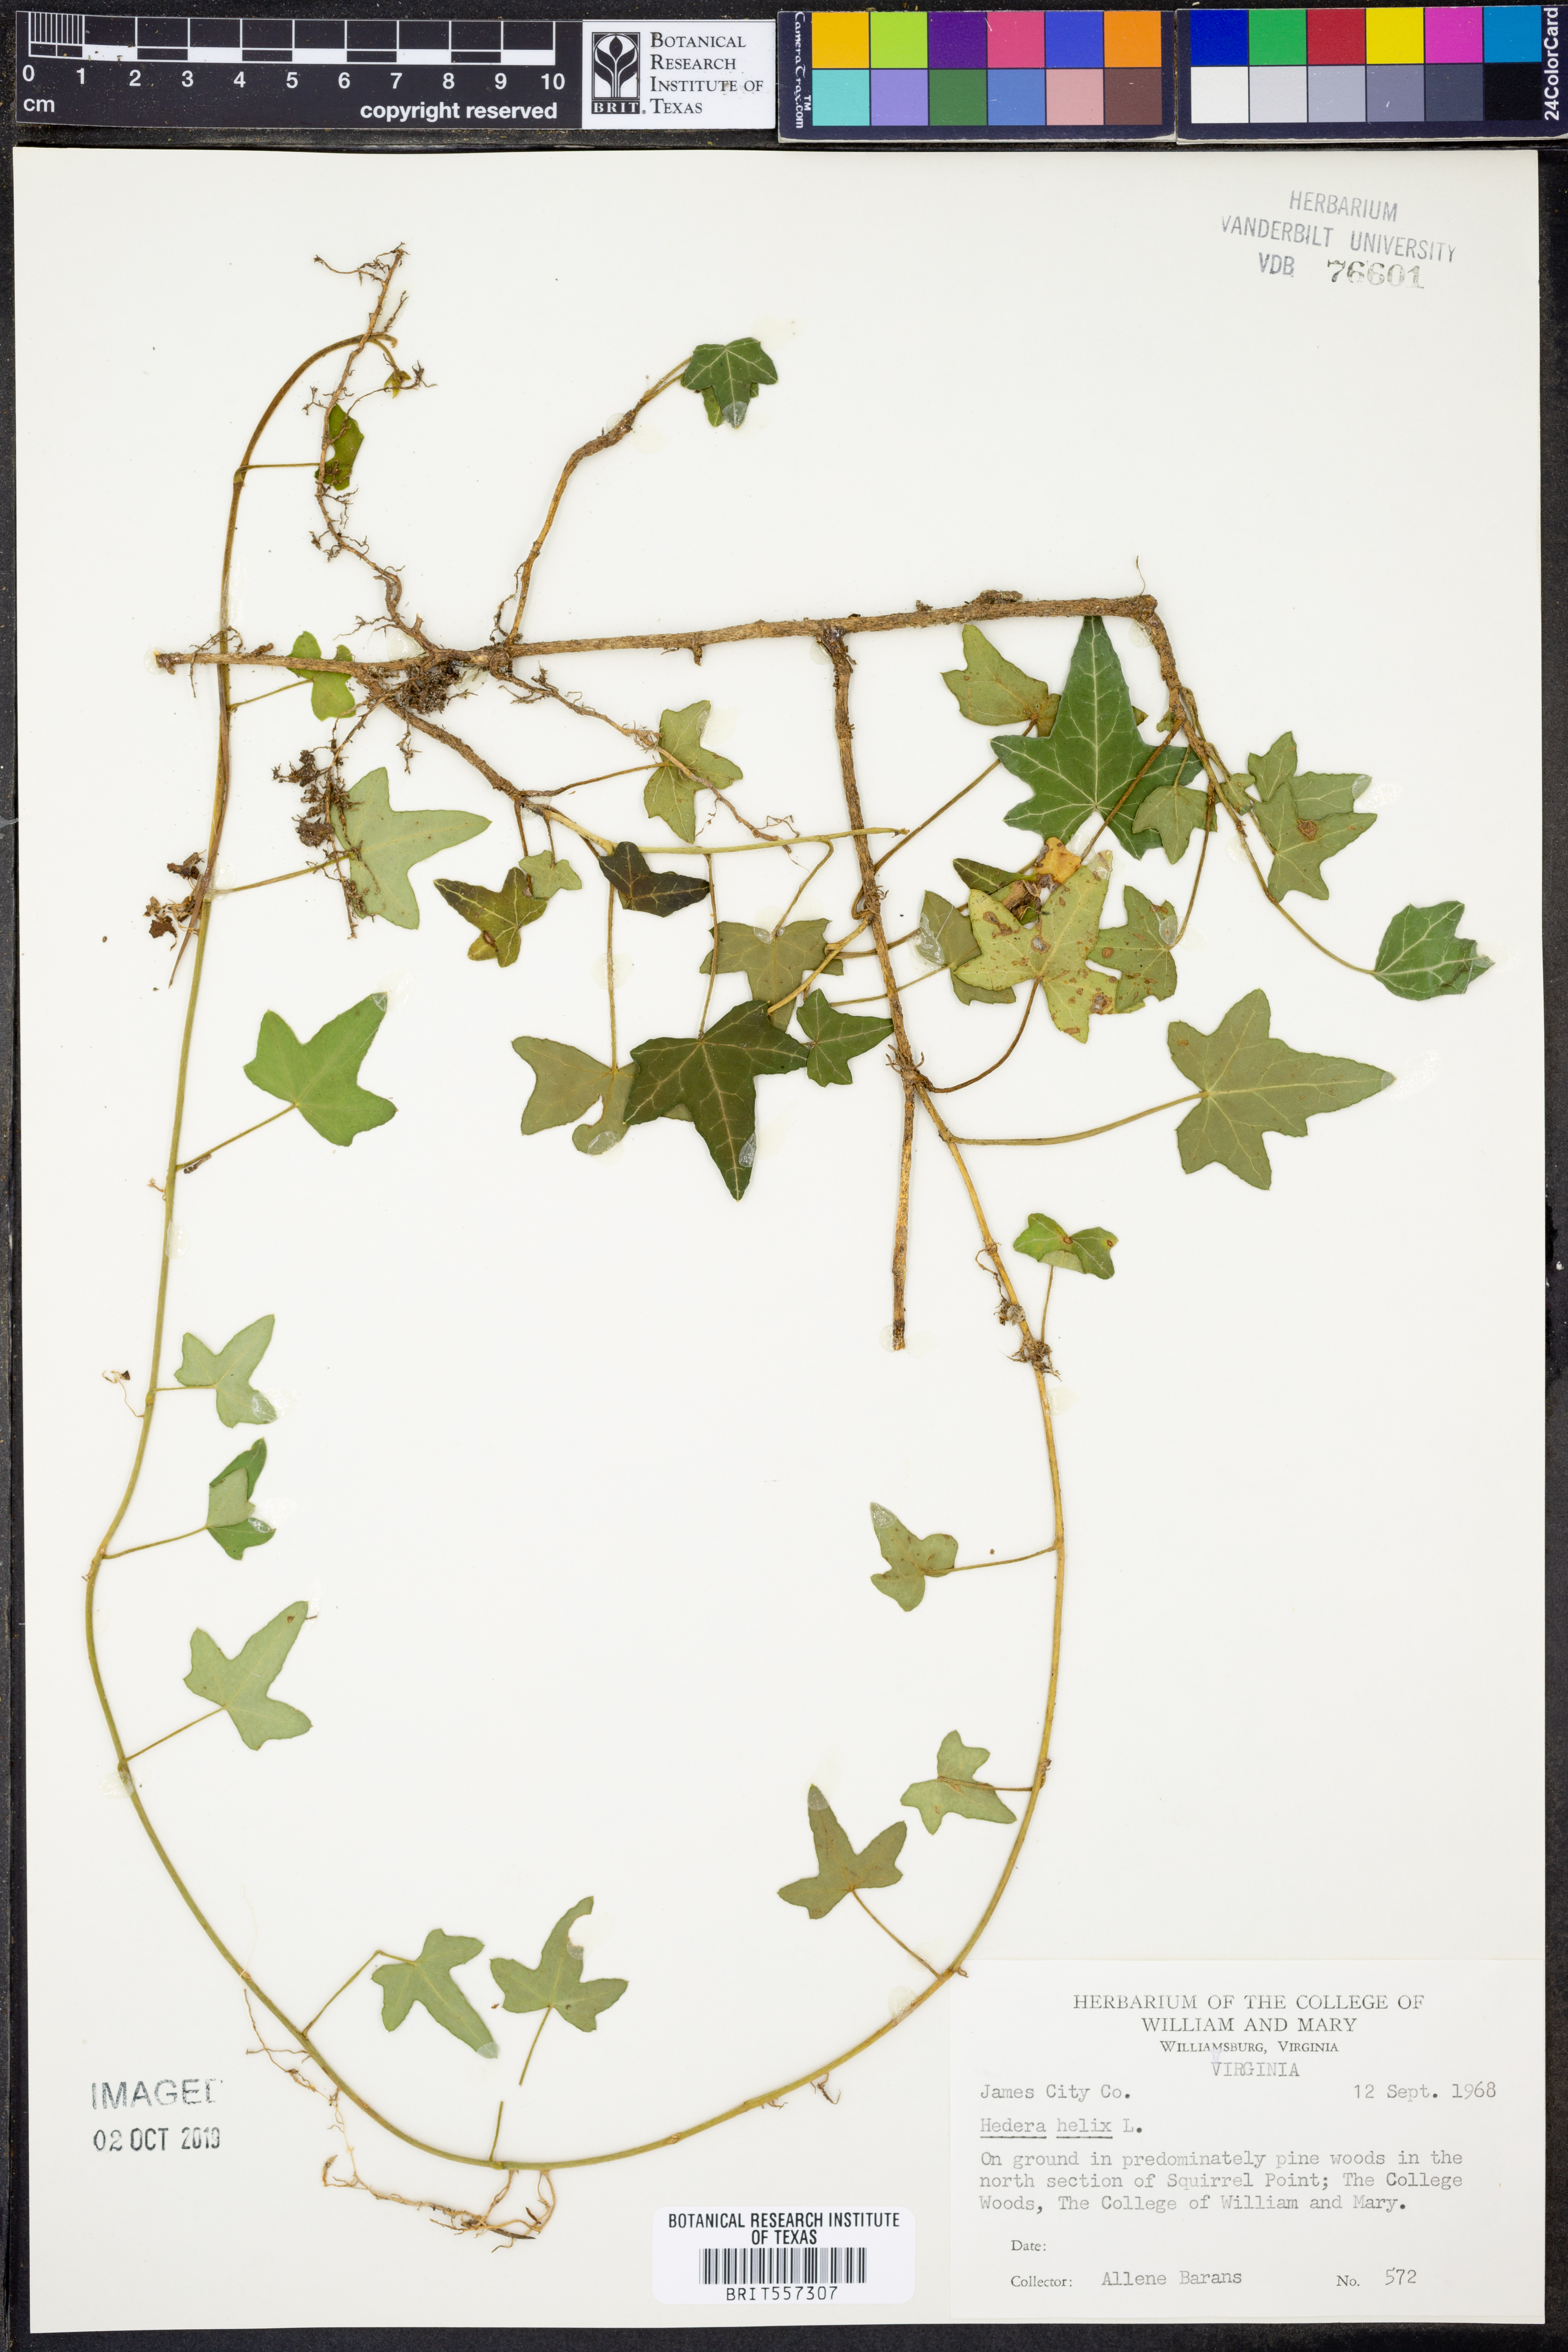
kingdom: Plantae
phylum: Tracheophyta
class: Magnoliopsida
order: Apiales
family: Araliaceae
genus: Hedera
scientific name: Hedera helix
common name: Ivy
